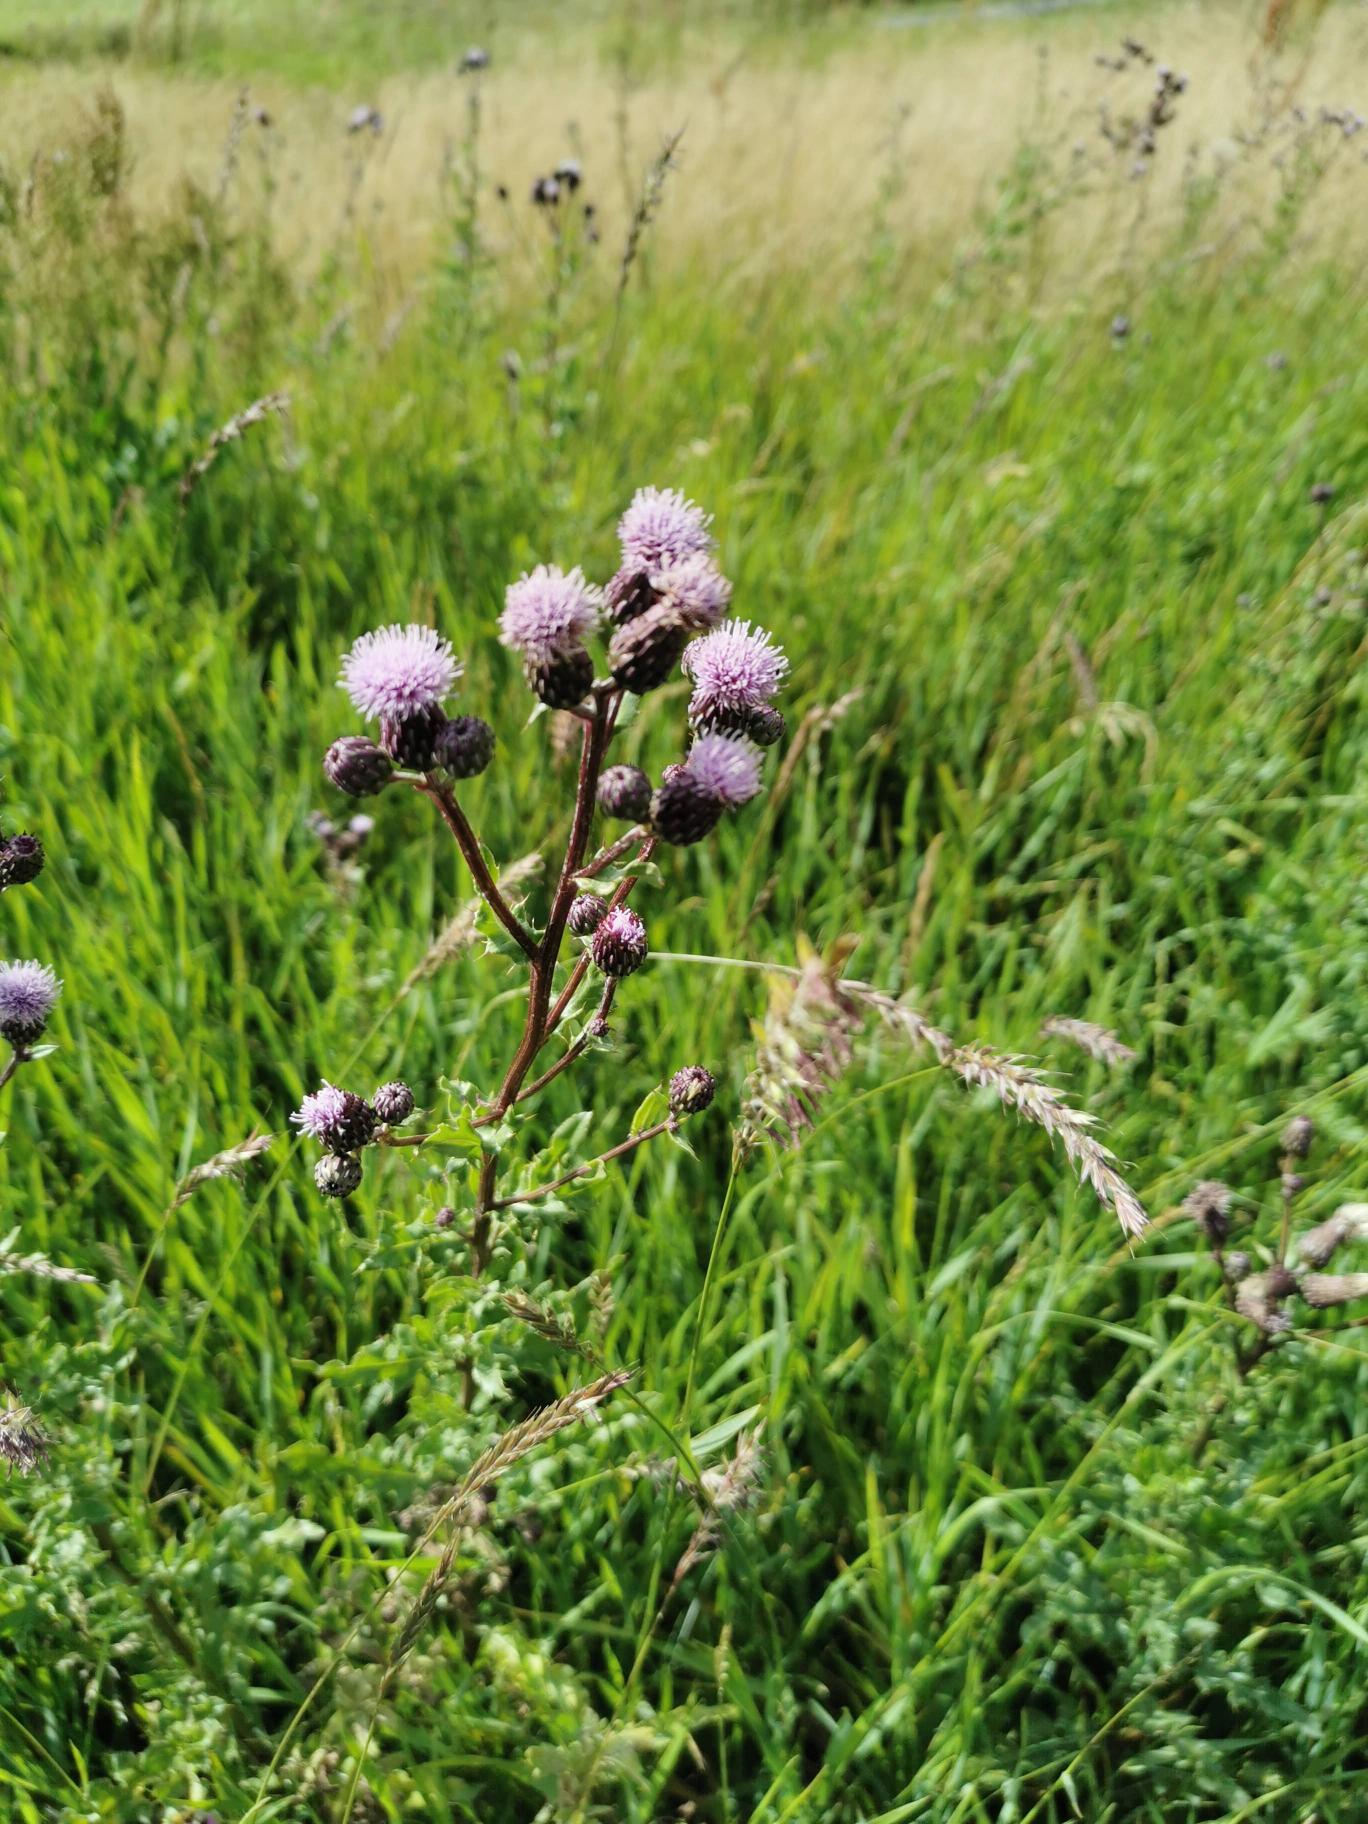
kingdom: Plantae
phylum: Tracheophyta
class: Magnoliopsida
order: Asterales
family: Asteraceae
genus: Cirsium
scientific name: Cirsium arvense
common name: Ager-tidsel
